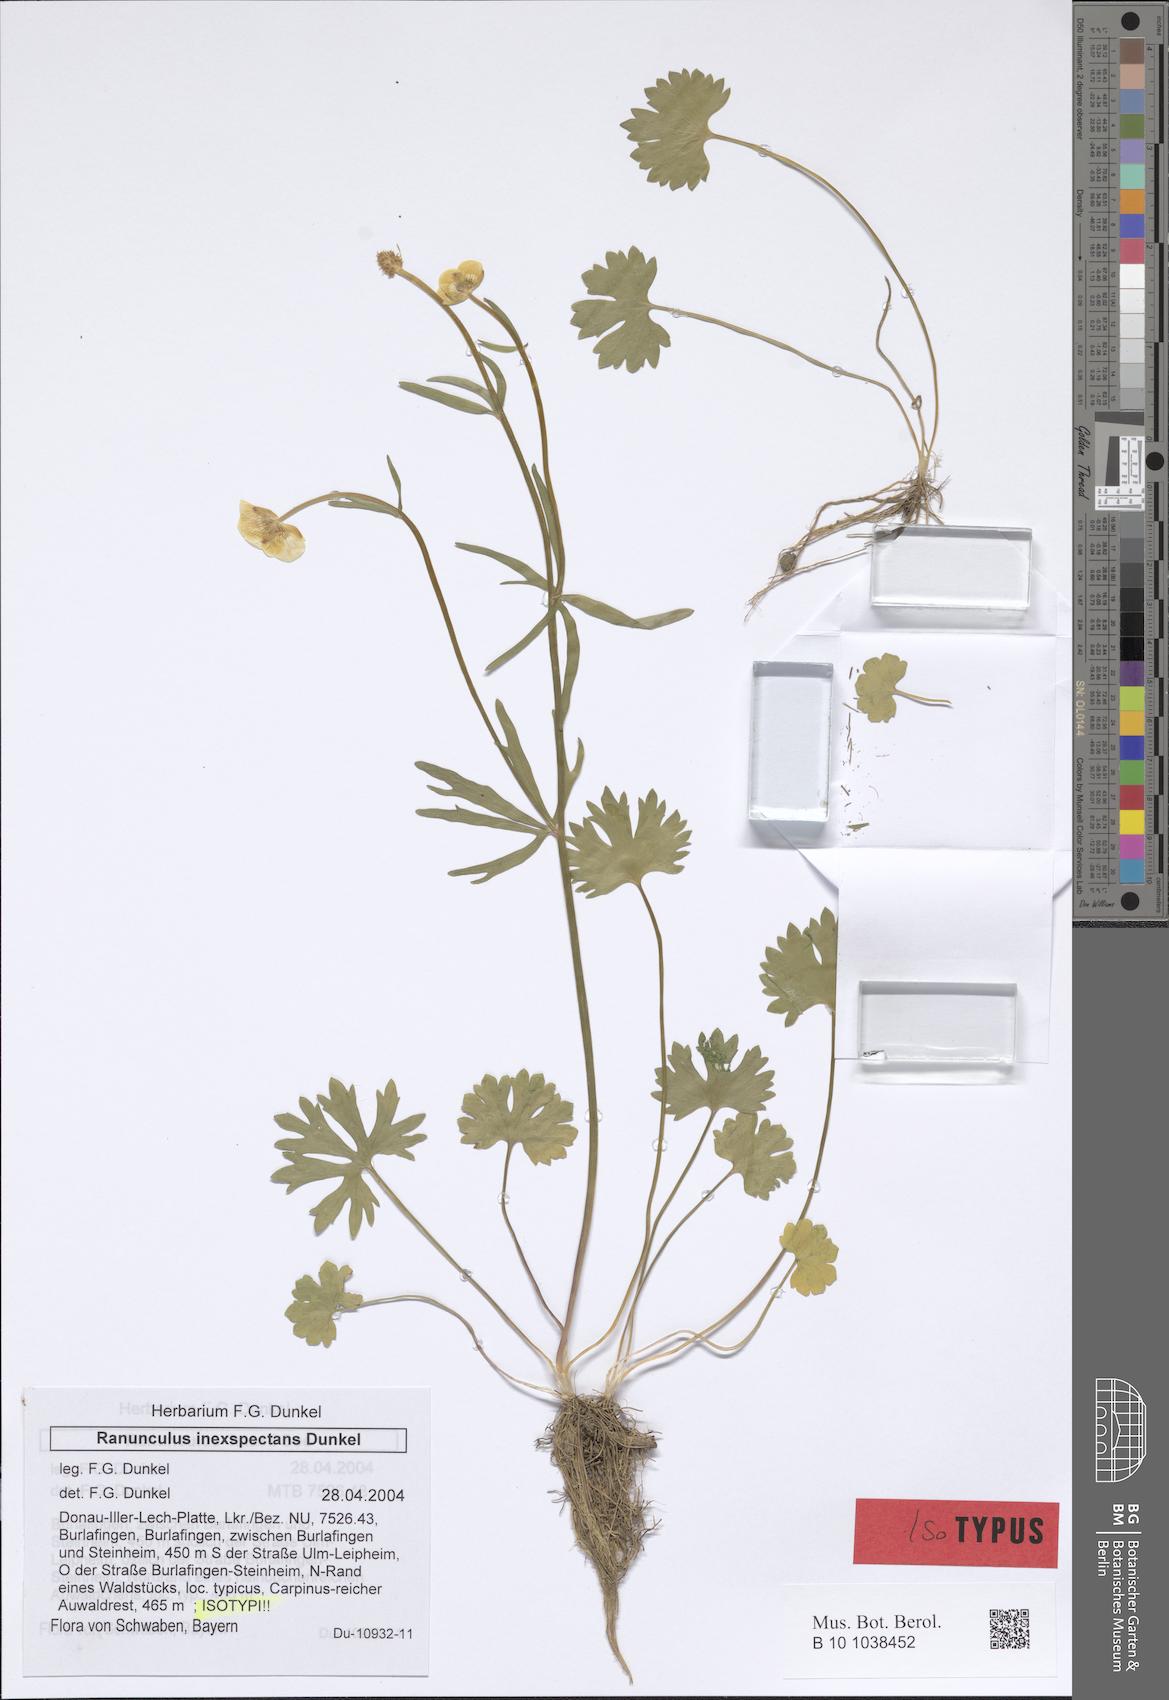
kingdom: Plantae
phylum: Tracheophyta
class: Magnoliopsida
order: Ranunculales
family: Ranunculaceae
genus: Ranunculus
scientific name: Ranunculus inexspectans
